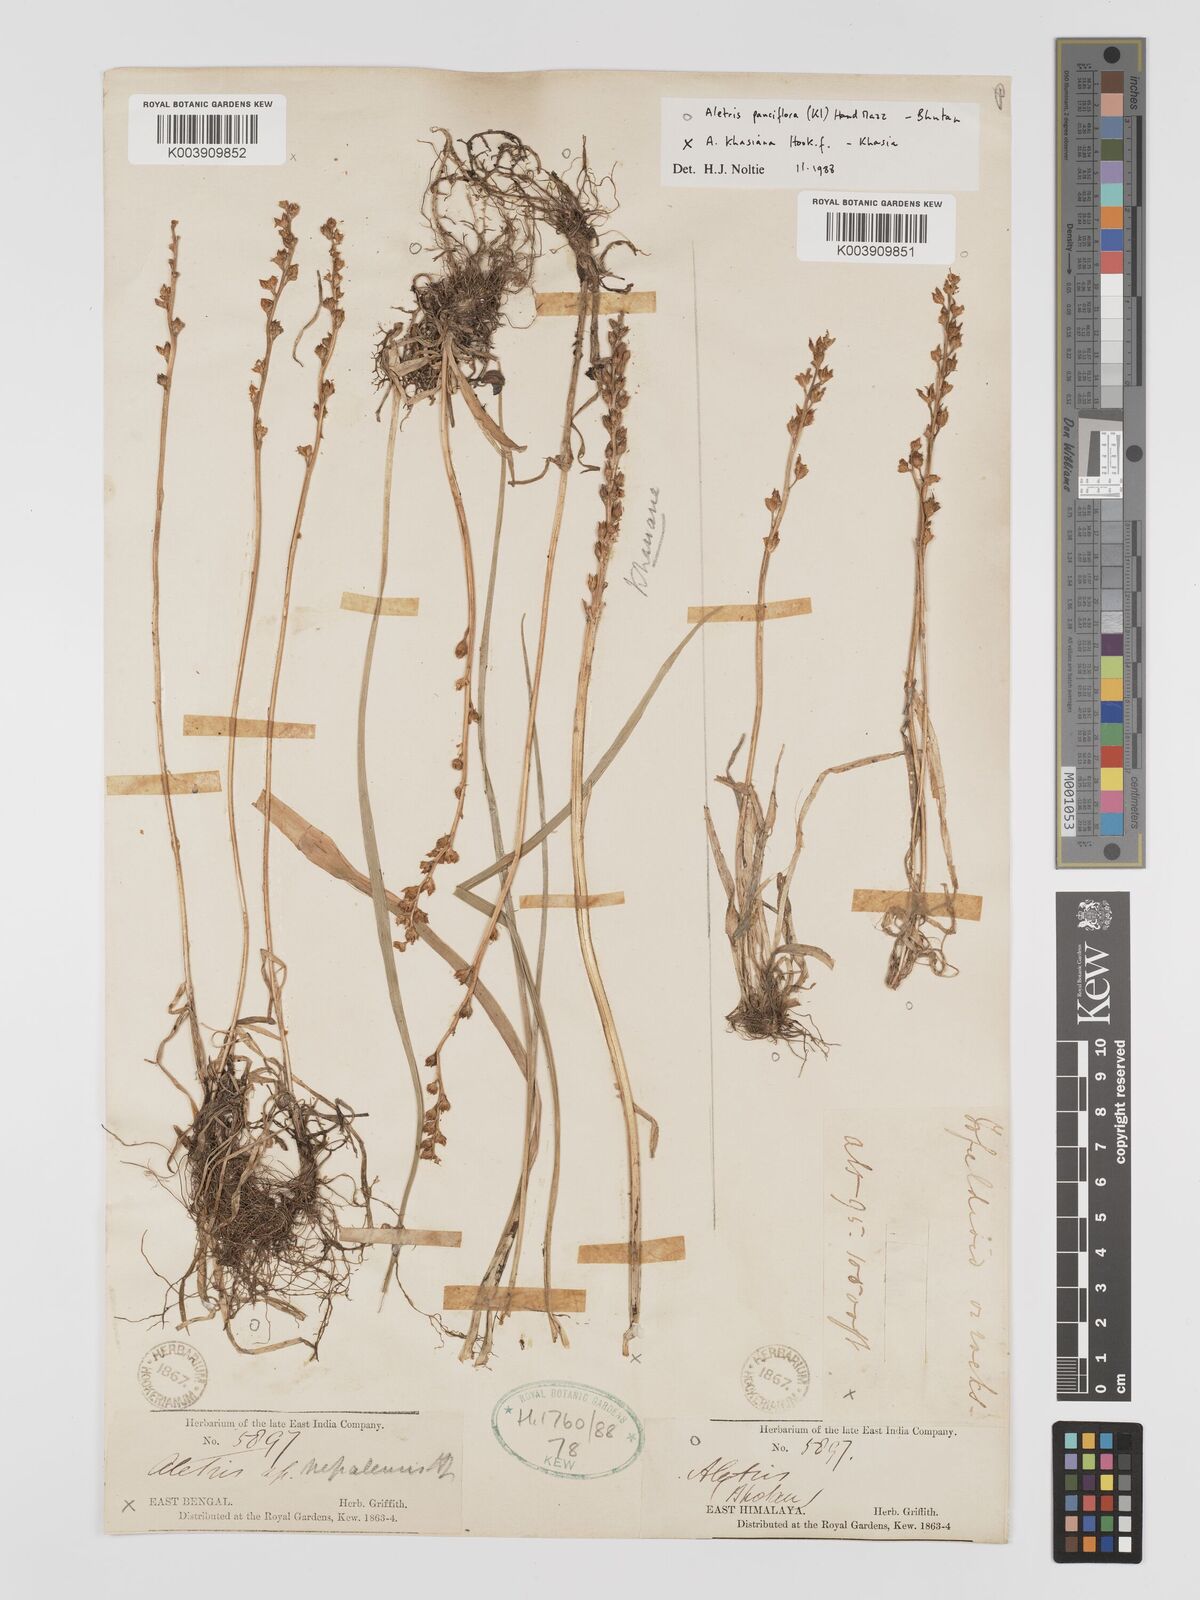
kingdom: Plantae
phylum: Tracheophyta
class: Liliopsida
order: Dioscoreales
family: Nartheciaceae
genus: Aletris
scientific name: Aletris pauciflora
